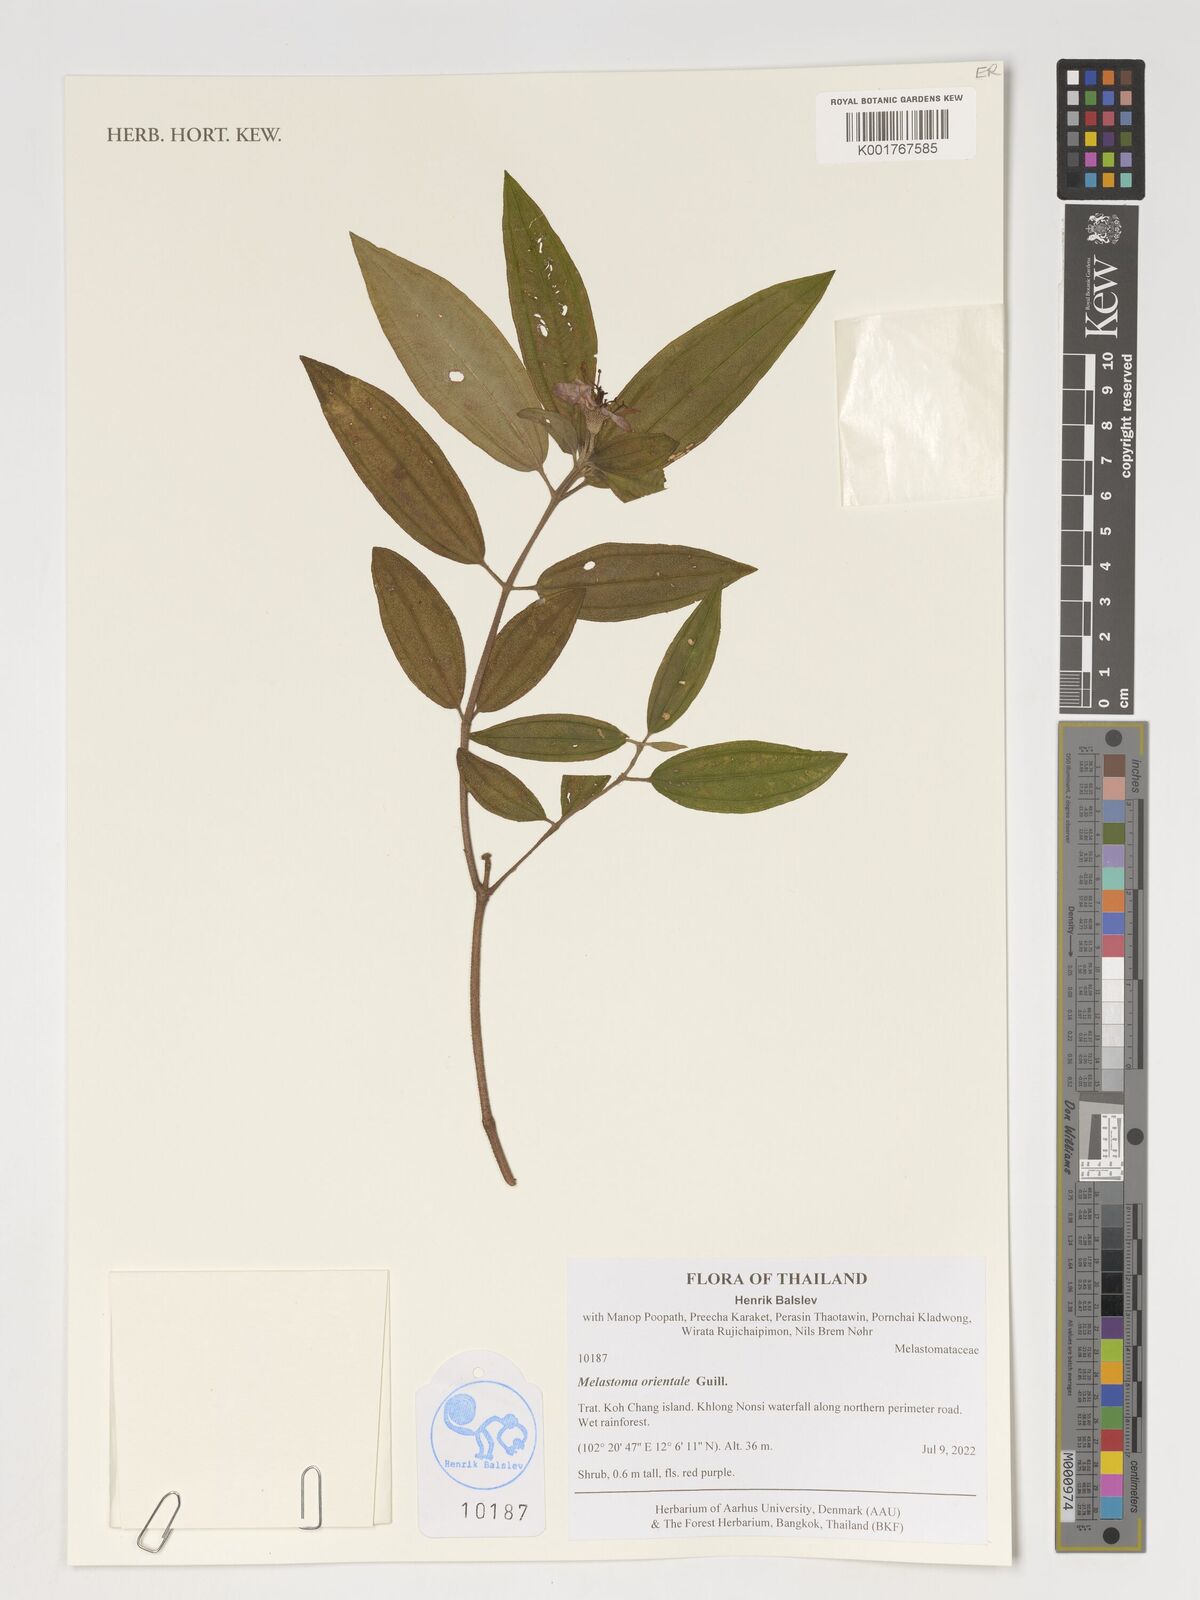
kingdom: Plantae
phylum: Tracheophyta
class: Magnoliopsida
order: Myrtales
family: Melastomataceae
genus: Melastoma
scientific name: Melastoma orientale
